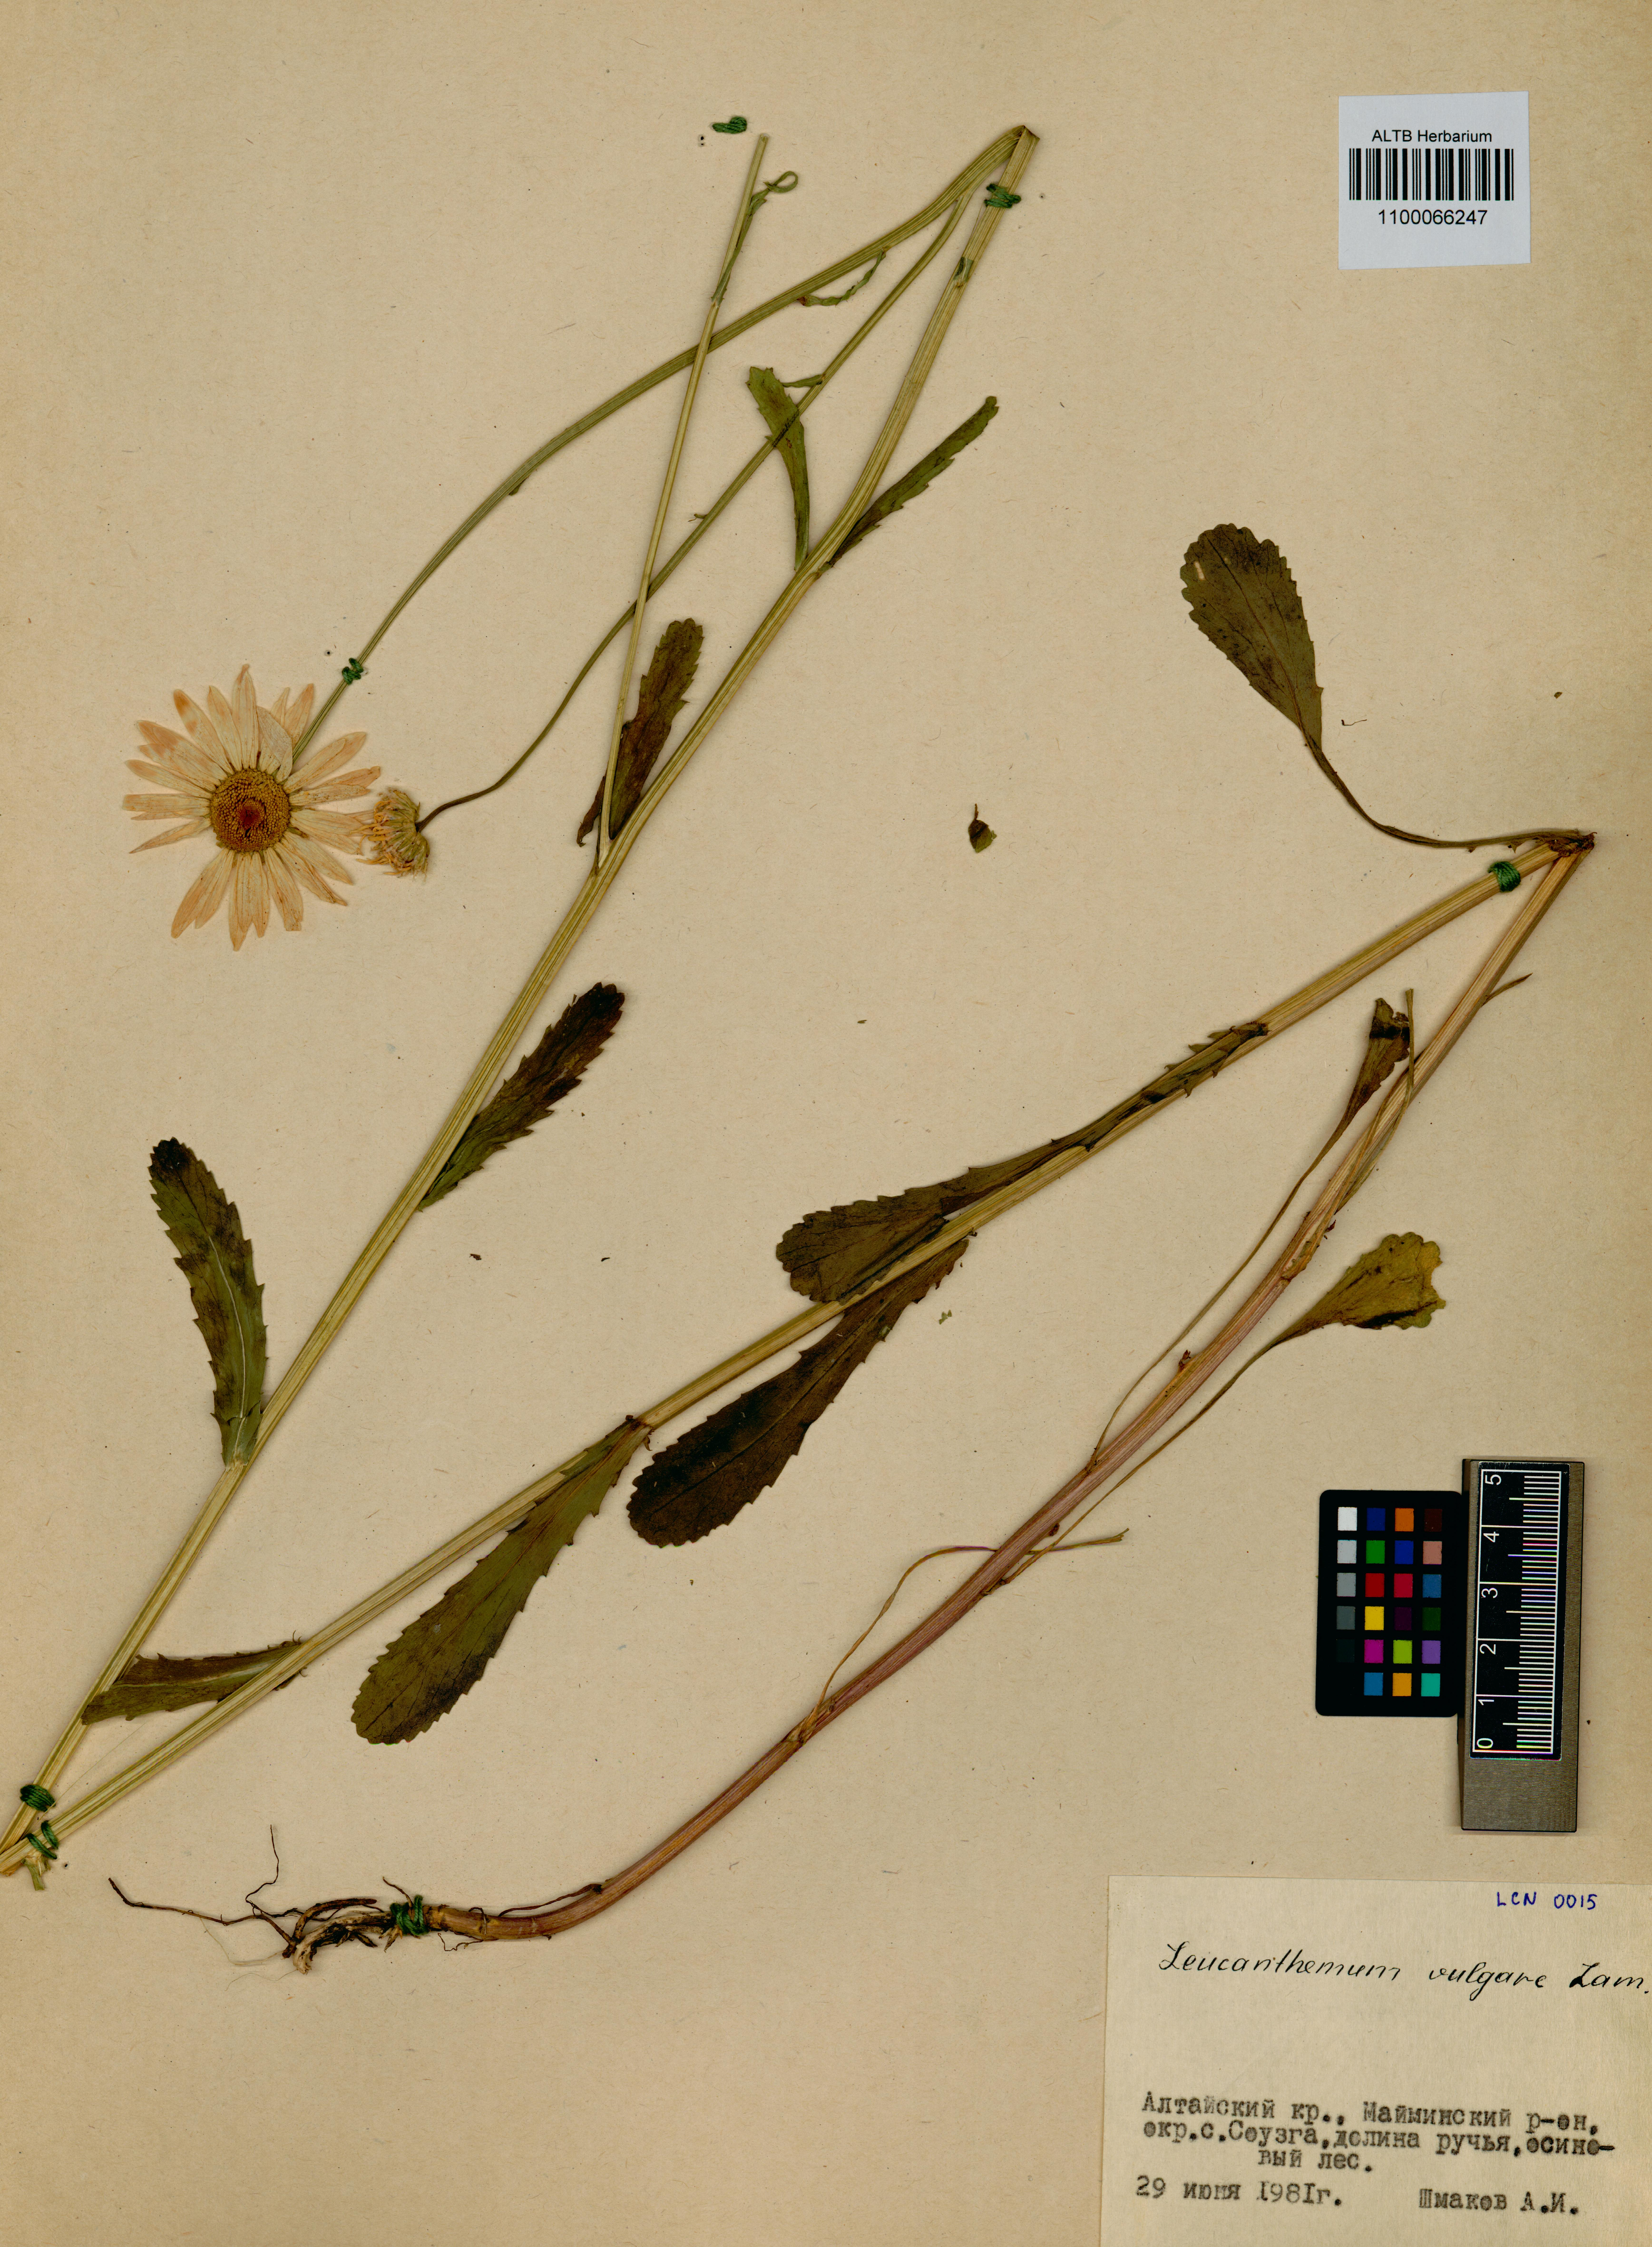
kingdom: Plantae
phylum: Tracheophyta
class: Magnoliopsida
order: Asterales
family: Asteraceae
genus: Leucanthemum
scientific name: Leucanthemum vulgare
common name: Oxeye daisy
